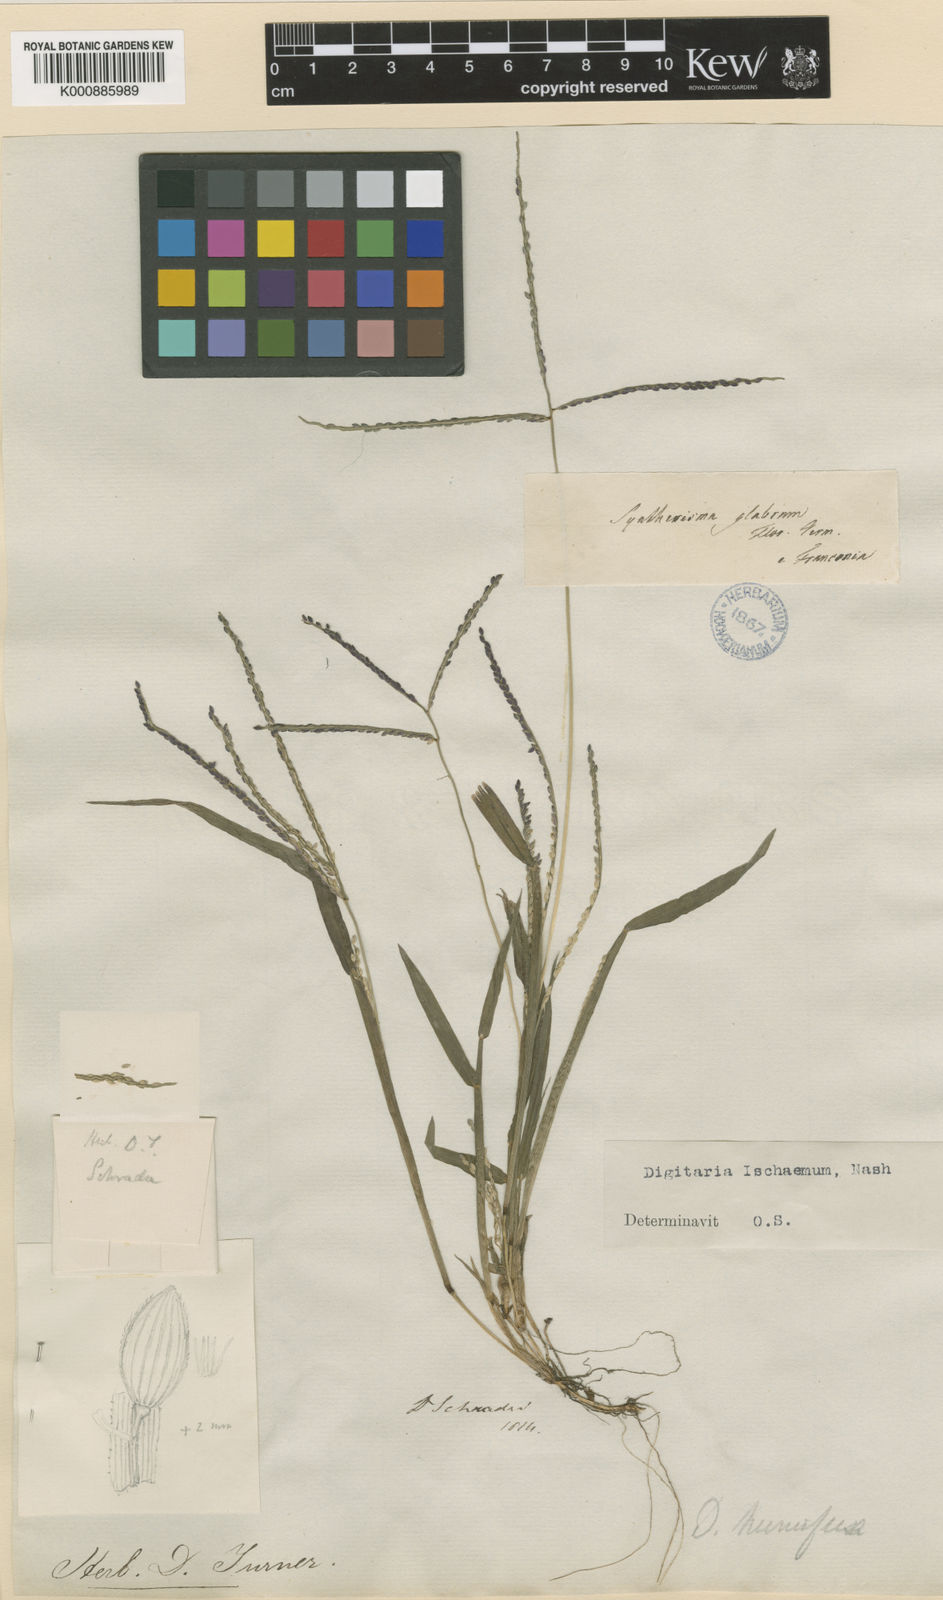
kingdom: Plantae
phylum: Tracheophyta
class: Liliopsida
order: Poales
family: Poaceae
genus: Digitaria
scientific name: Digitaria ischaemum
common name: Smooth crabgrass
